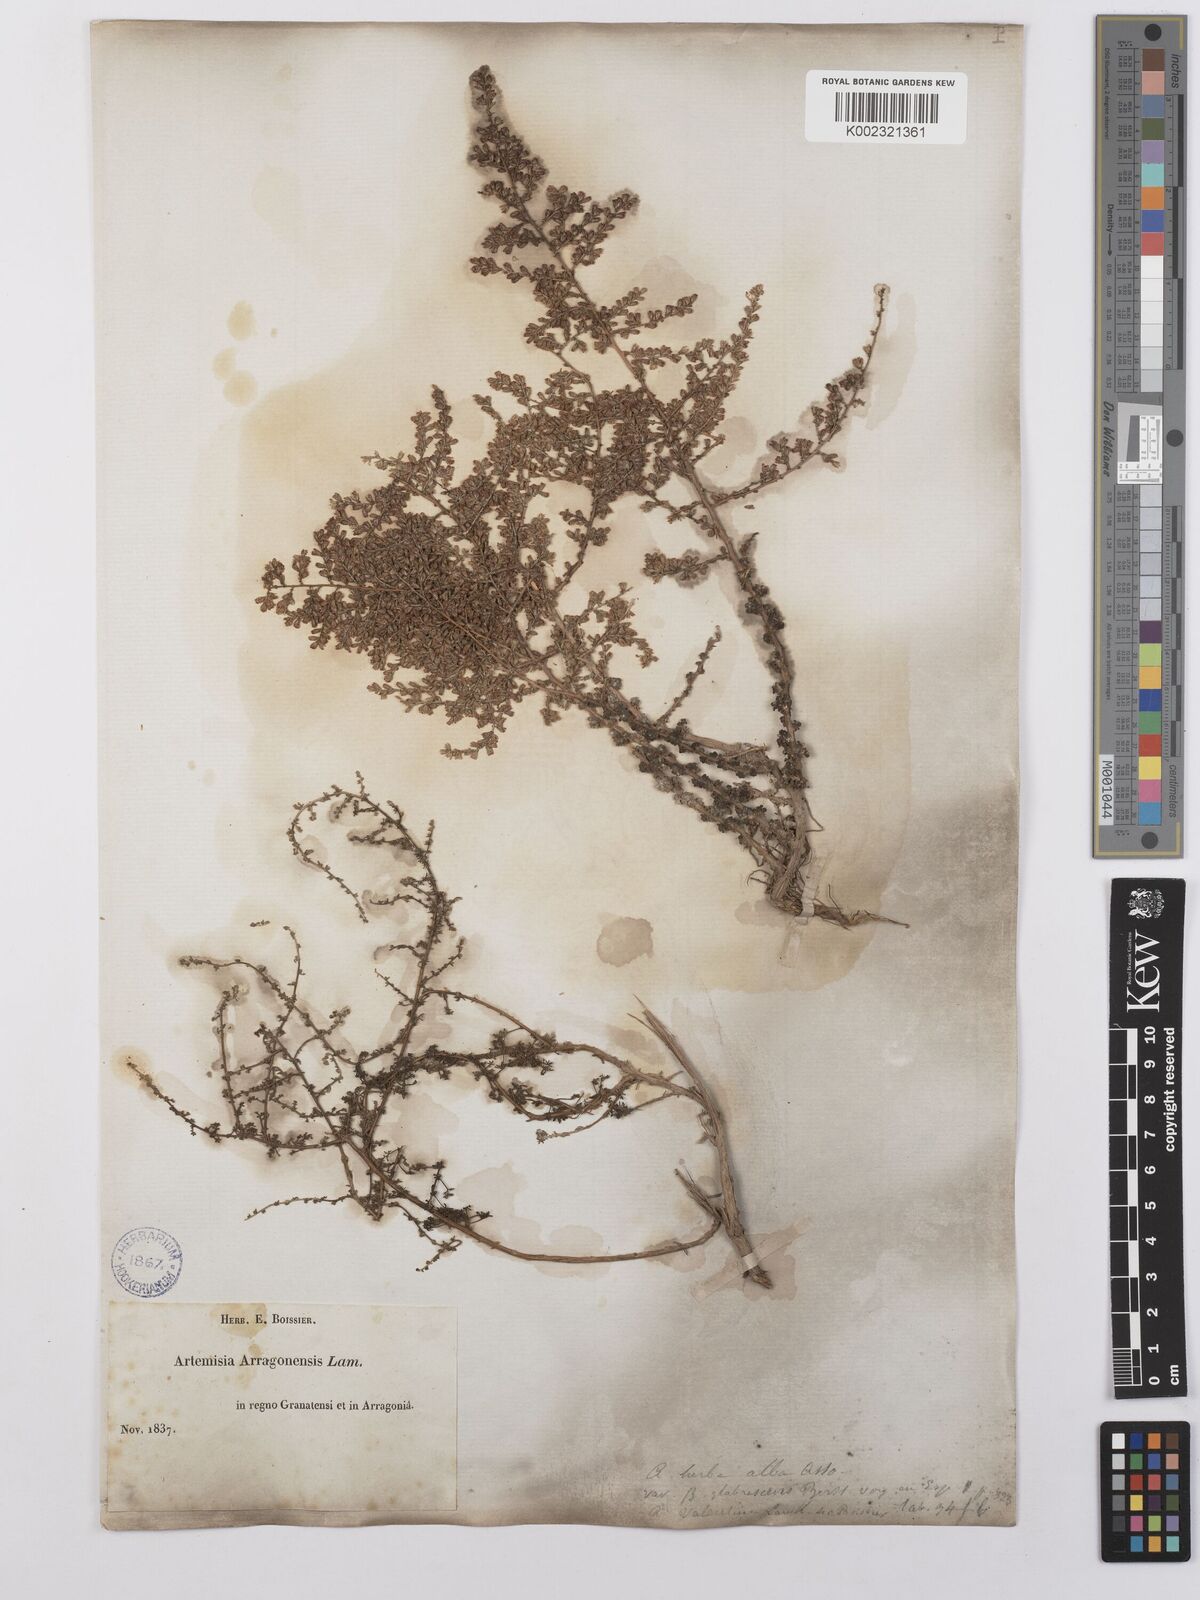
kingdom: Plantae
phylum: Tracheophyta
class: Magnoliopsida
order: Asterales
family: Asteraceae
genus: Artemisia
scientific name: Artemisia herba-alba
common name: White wormwood
